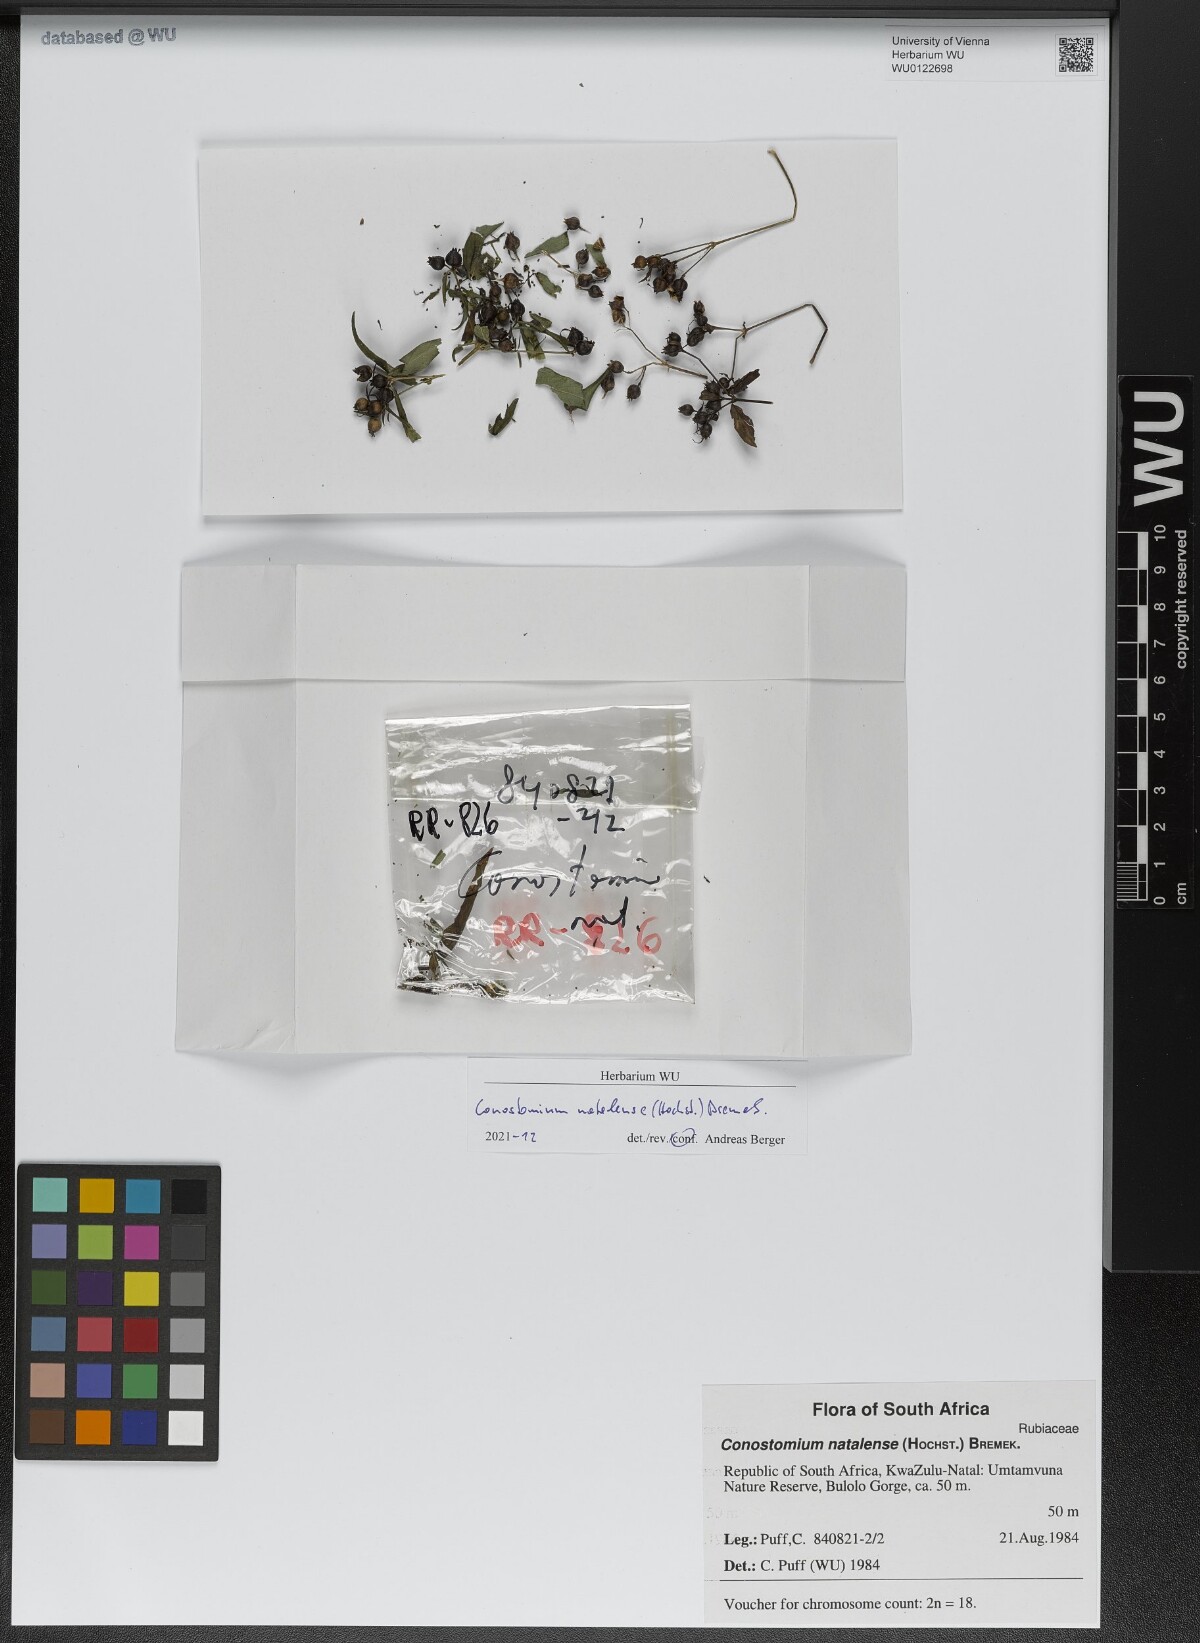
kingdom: Plantae
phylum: Tracheophyta
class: Magnoliopsida
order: Gentianales
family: Rubiaceae
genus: Conostomium
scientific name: Conostomium natalense
